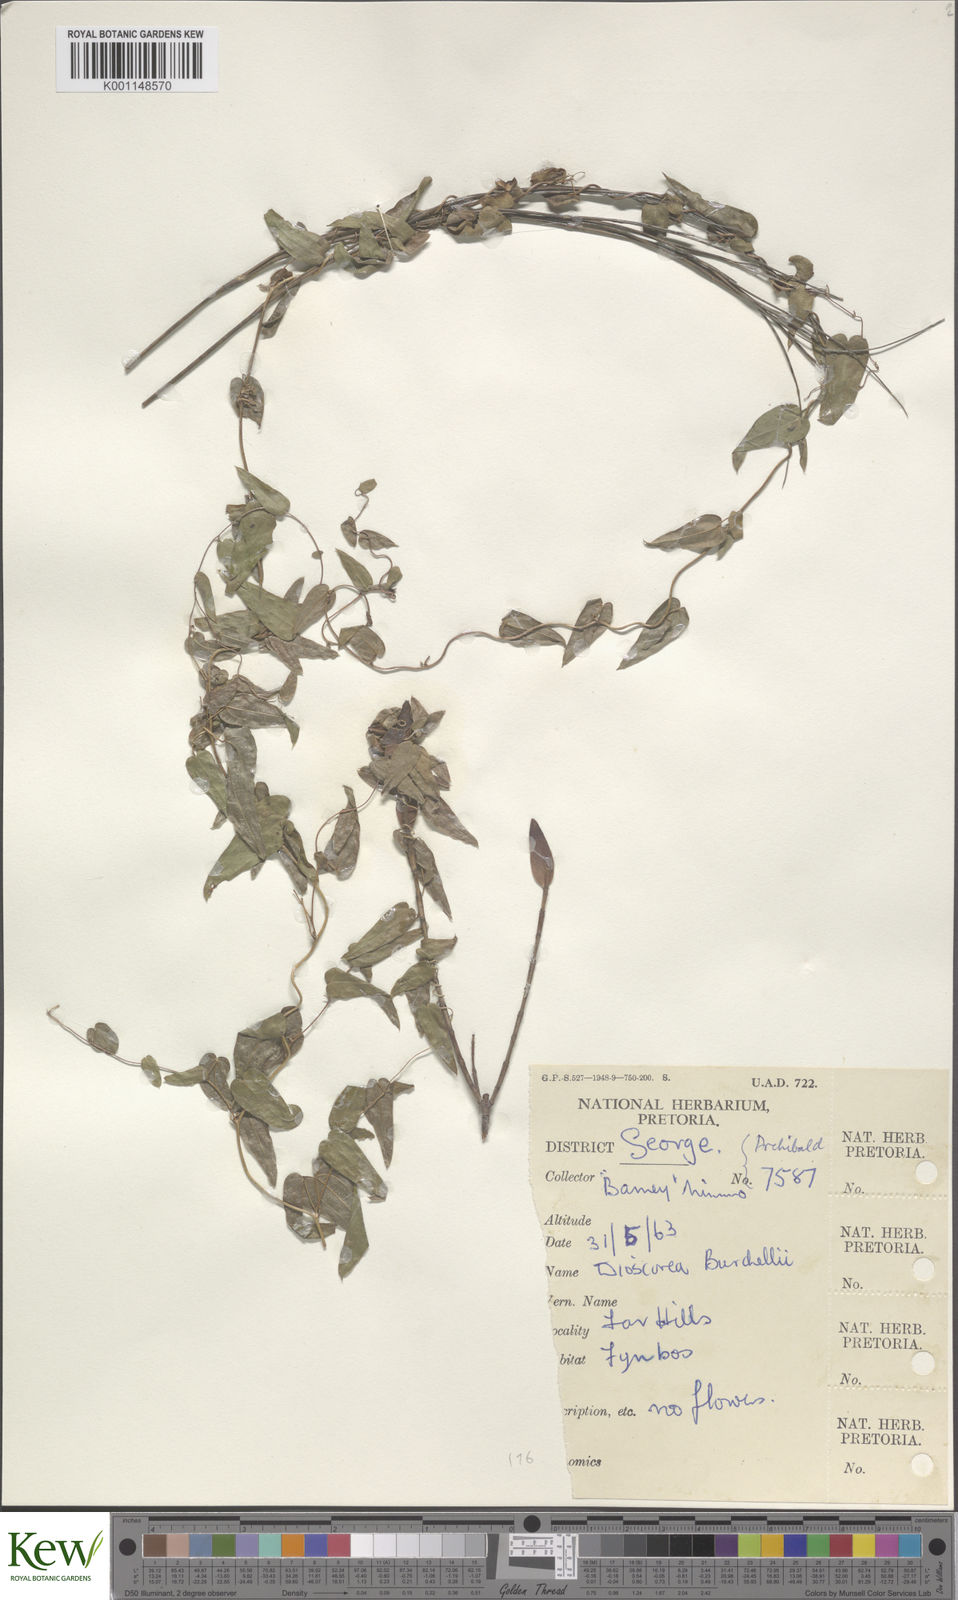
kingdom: Plantae
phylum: Tracheophyta
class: Liliopsida
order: Dioscoreales
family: Dioscoreaceae
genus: Dioscorea
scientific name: Dioscorea burchellii
